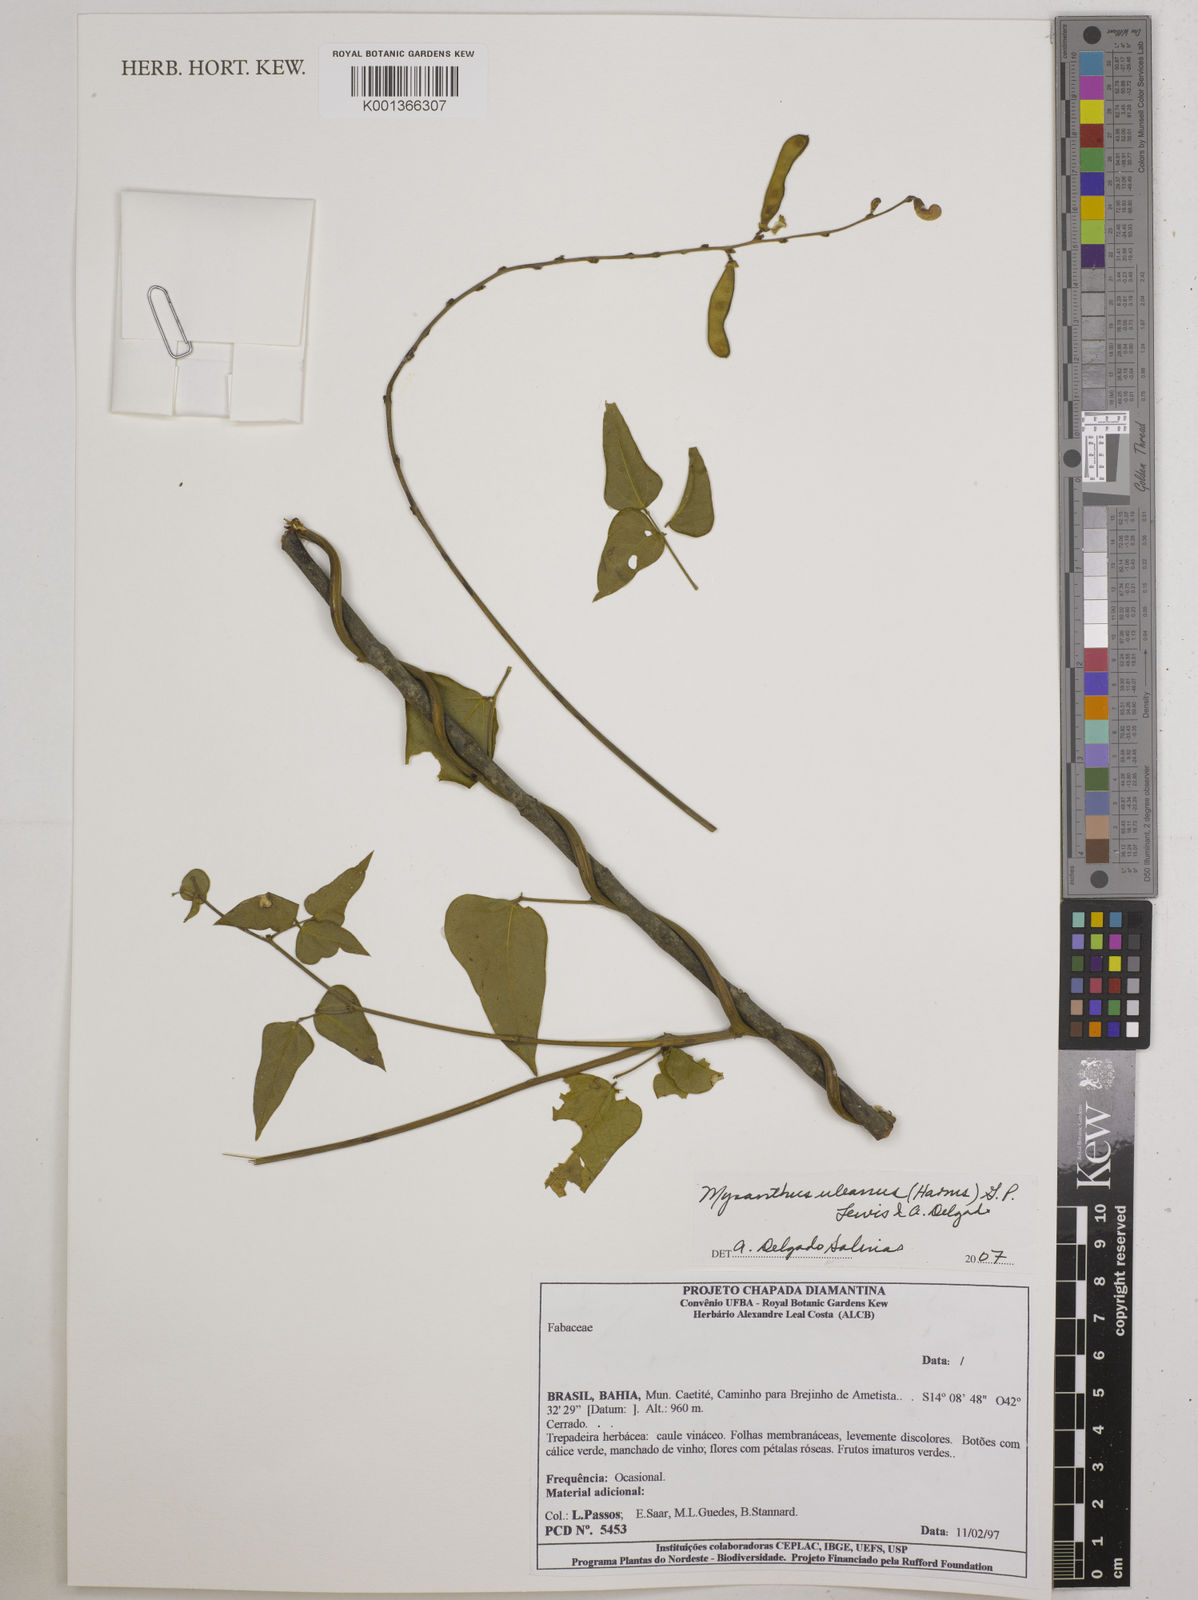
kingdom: Plantae
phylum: Tracheophyta
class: Magnoliopsida
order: Fabales
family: Fabaceae
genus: Mysanthus
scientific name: Mysanthus uleanus
